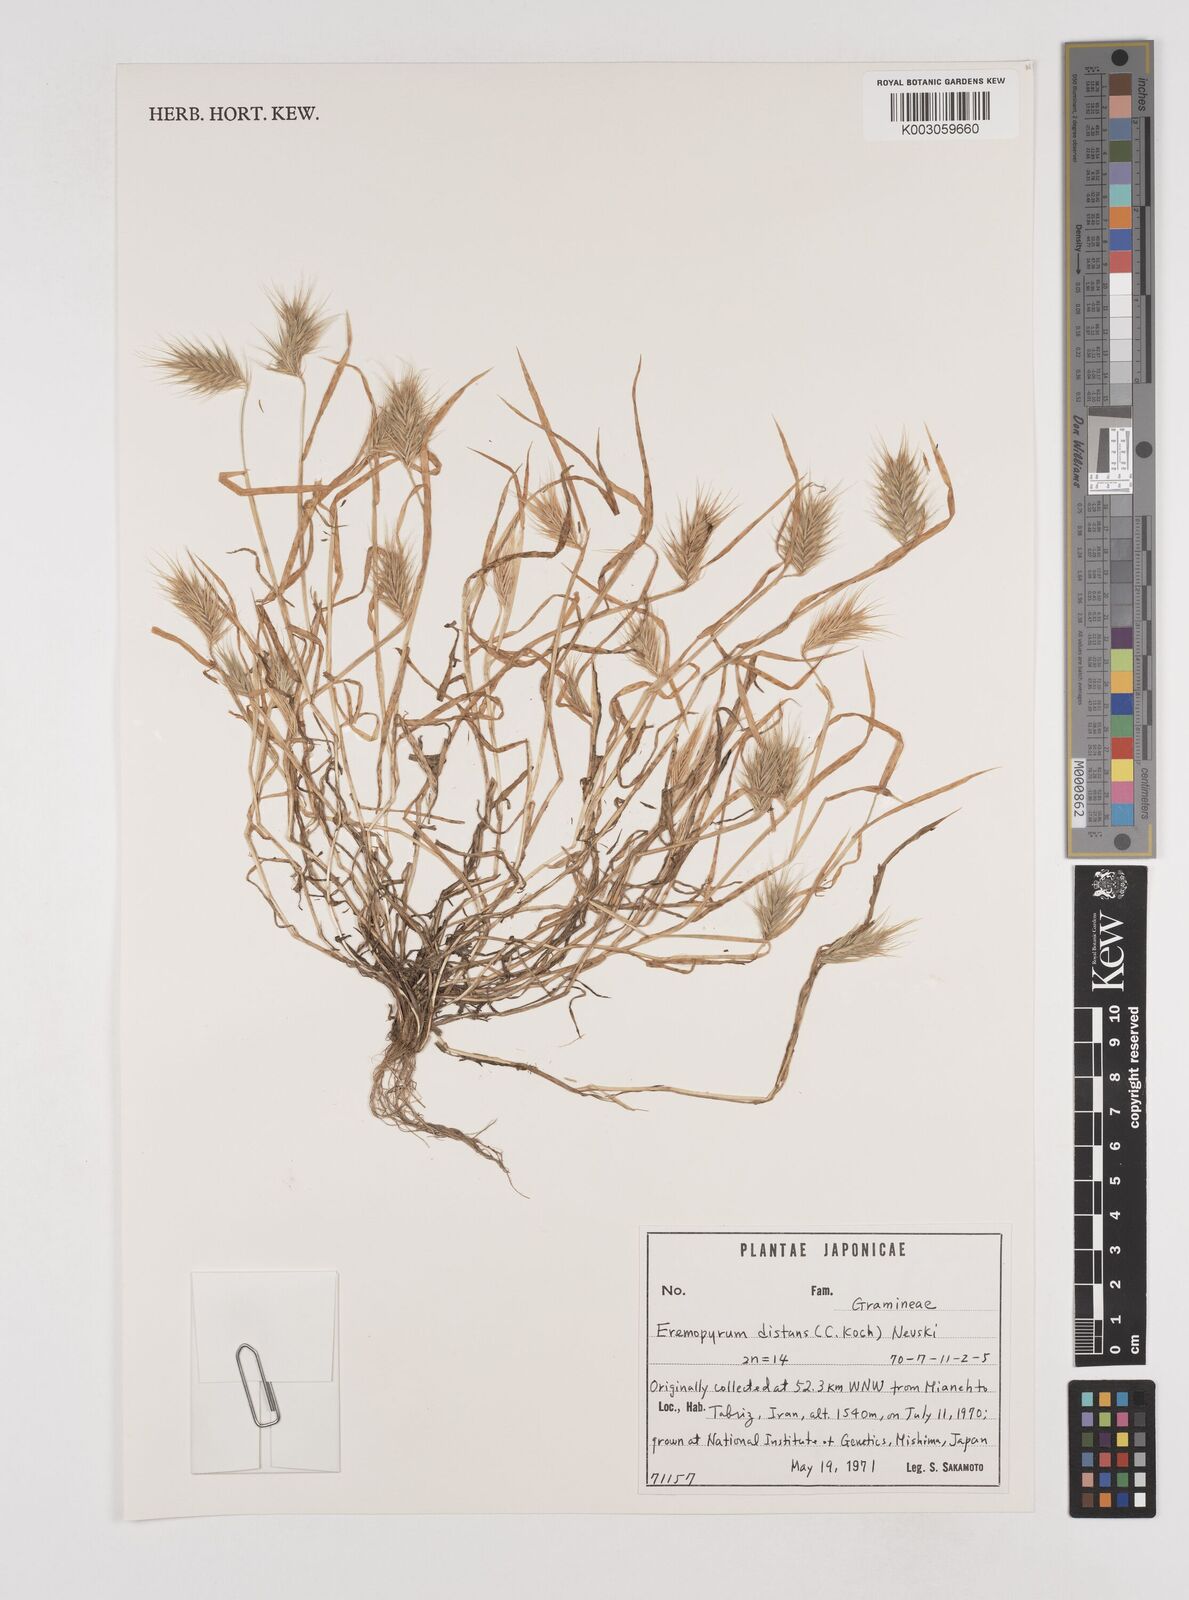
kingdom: Plantae
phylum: Tracheophyta
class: Liliopsida
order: Poales
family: Poaceae
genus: Eremopyrum
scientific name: Eremopyrum distans
